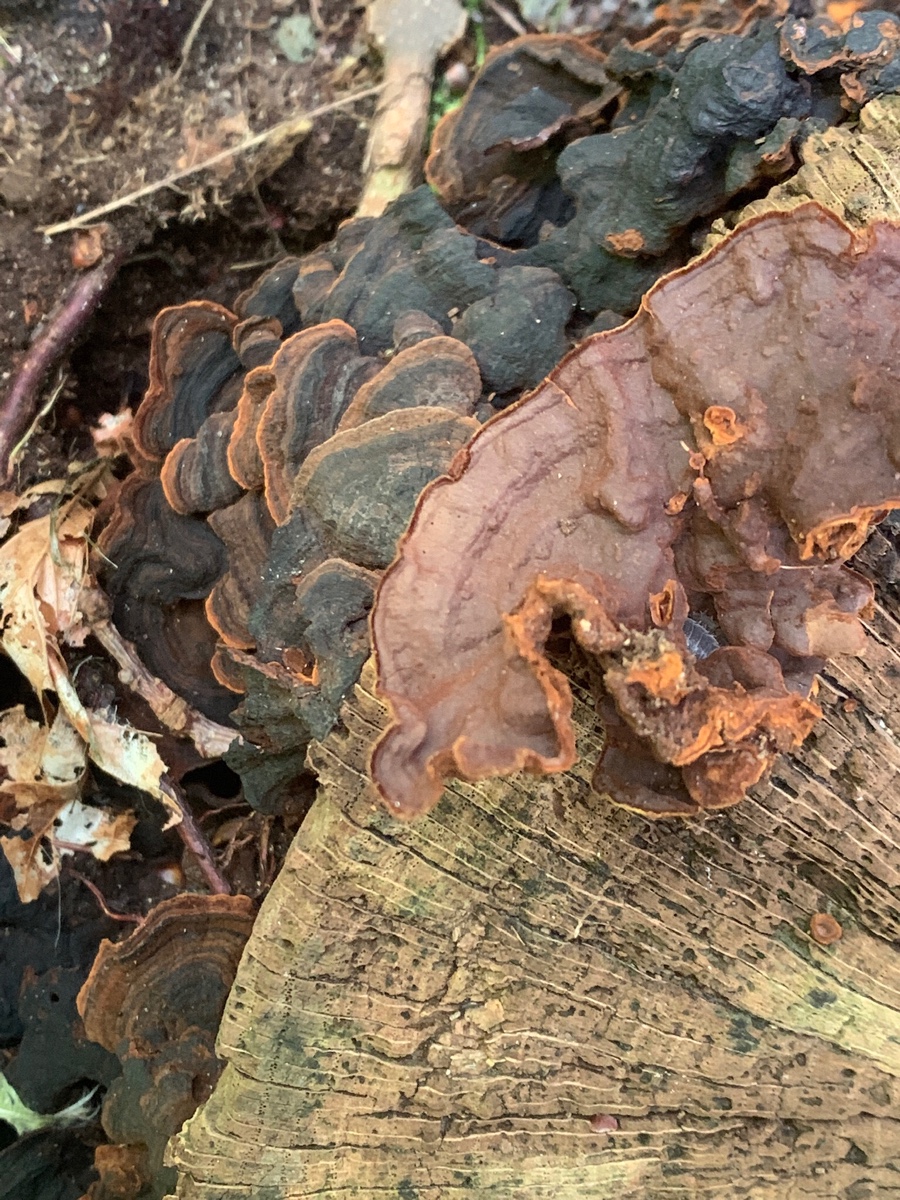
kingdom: Fungi
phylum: Basidiomycota
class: Agaricomycetes
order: Hymenochaetales
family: Hymenochaetaceae
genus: Hymenochaete
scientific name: Hymenochaete rubiginosa
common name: stiv ruslædersvamp
